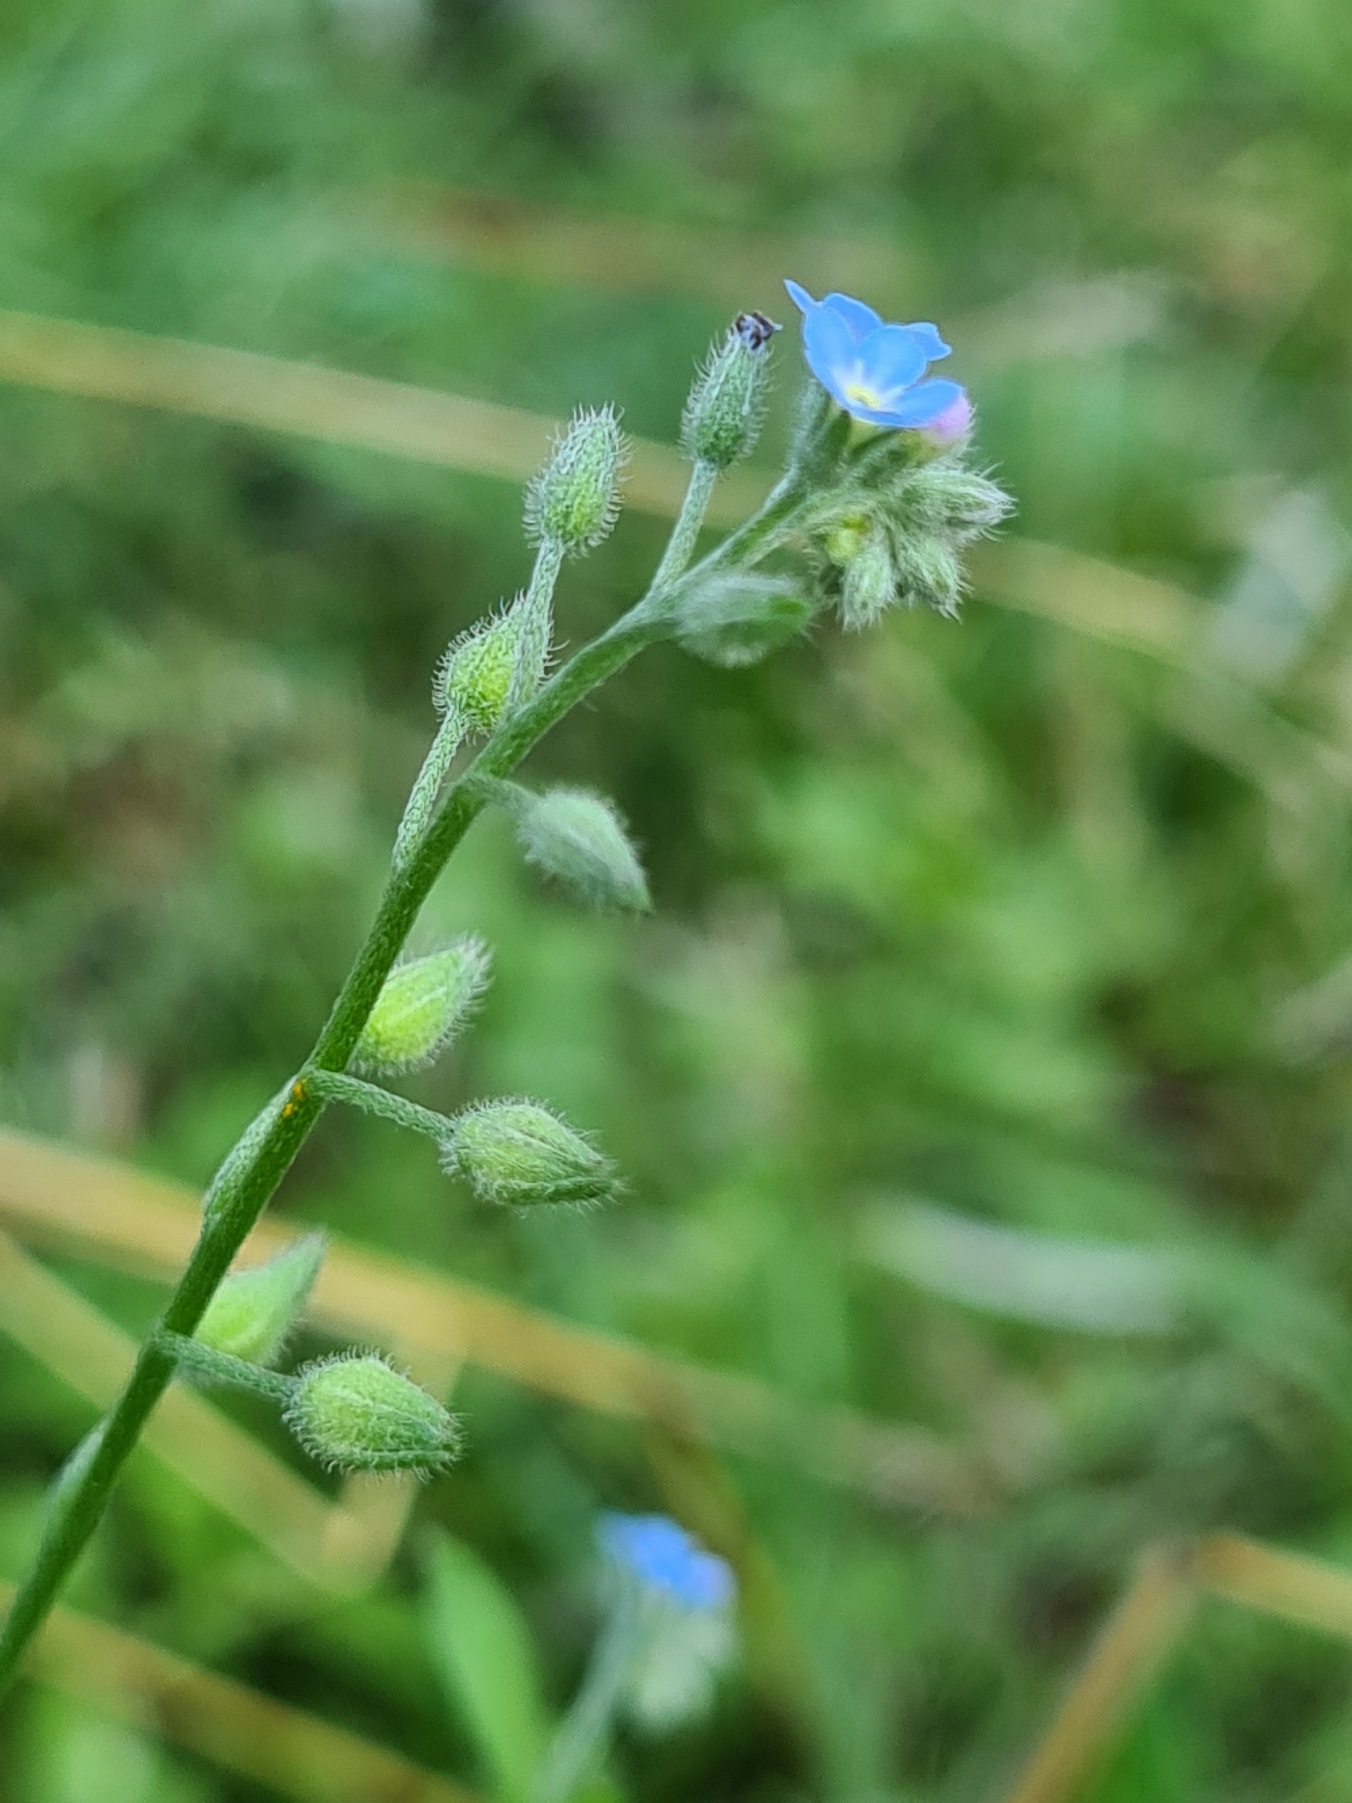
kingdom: Plantae
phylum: Tracheophyta
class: Magnoliopsida
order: Boraginales
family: Boraginaceae
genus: Myosotis
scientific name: Myosotis arvensis
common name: Mark-forglemmigej
